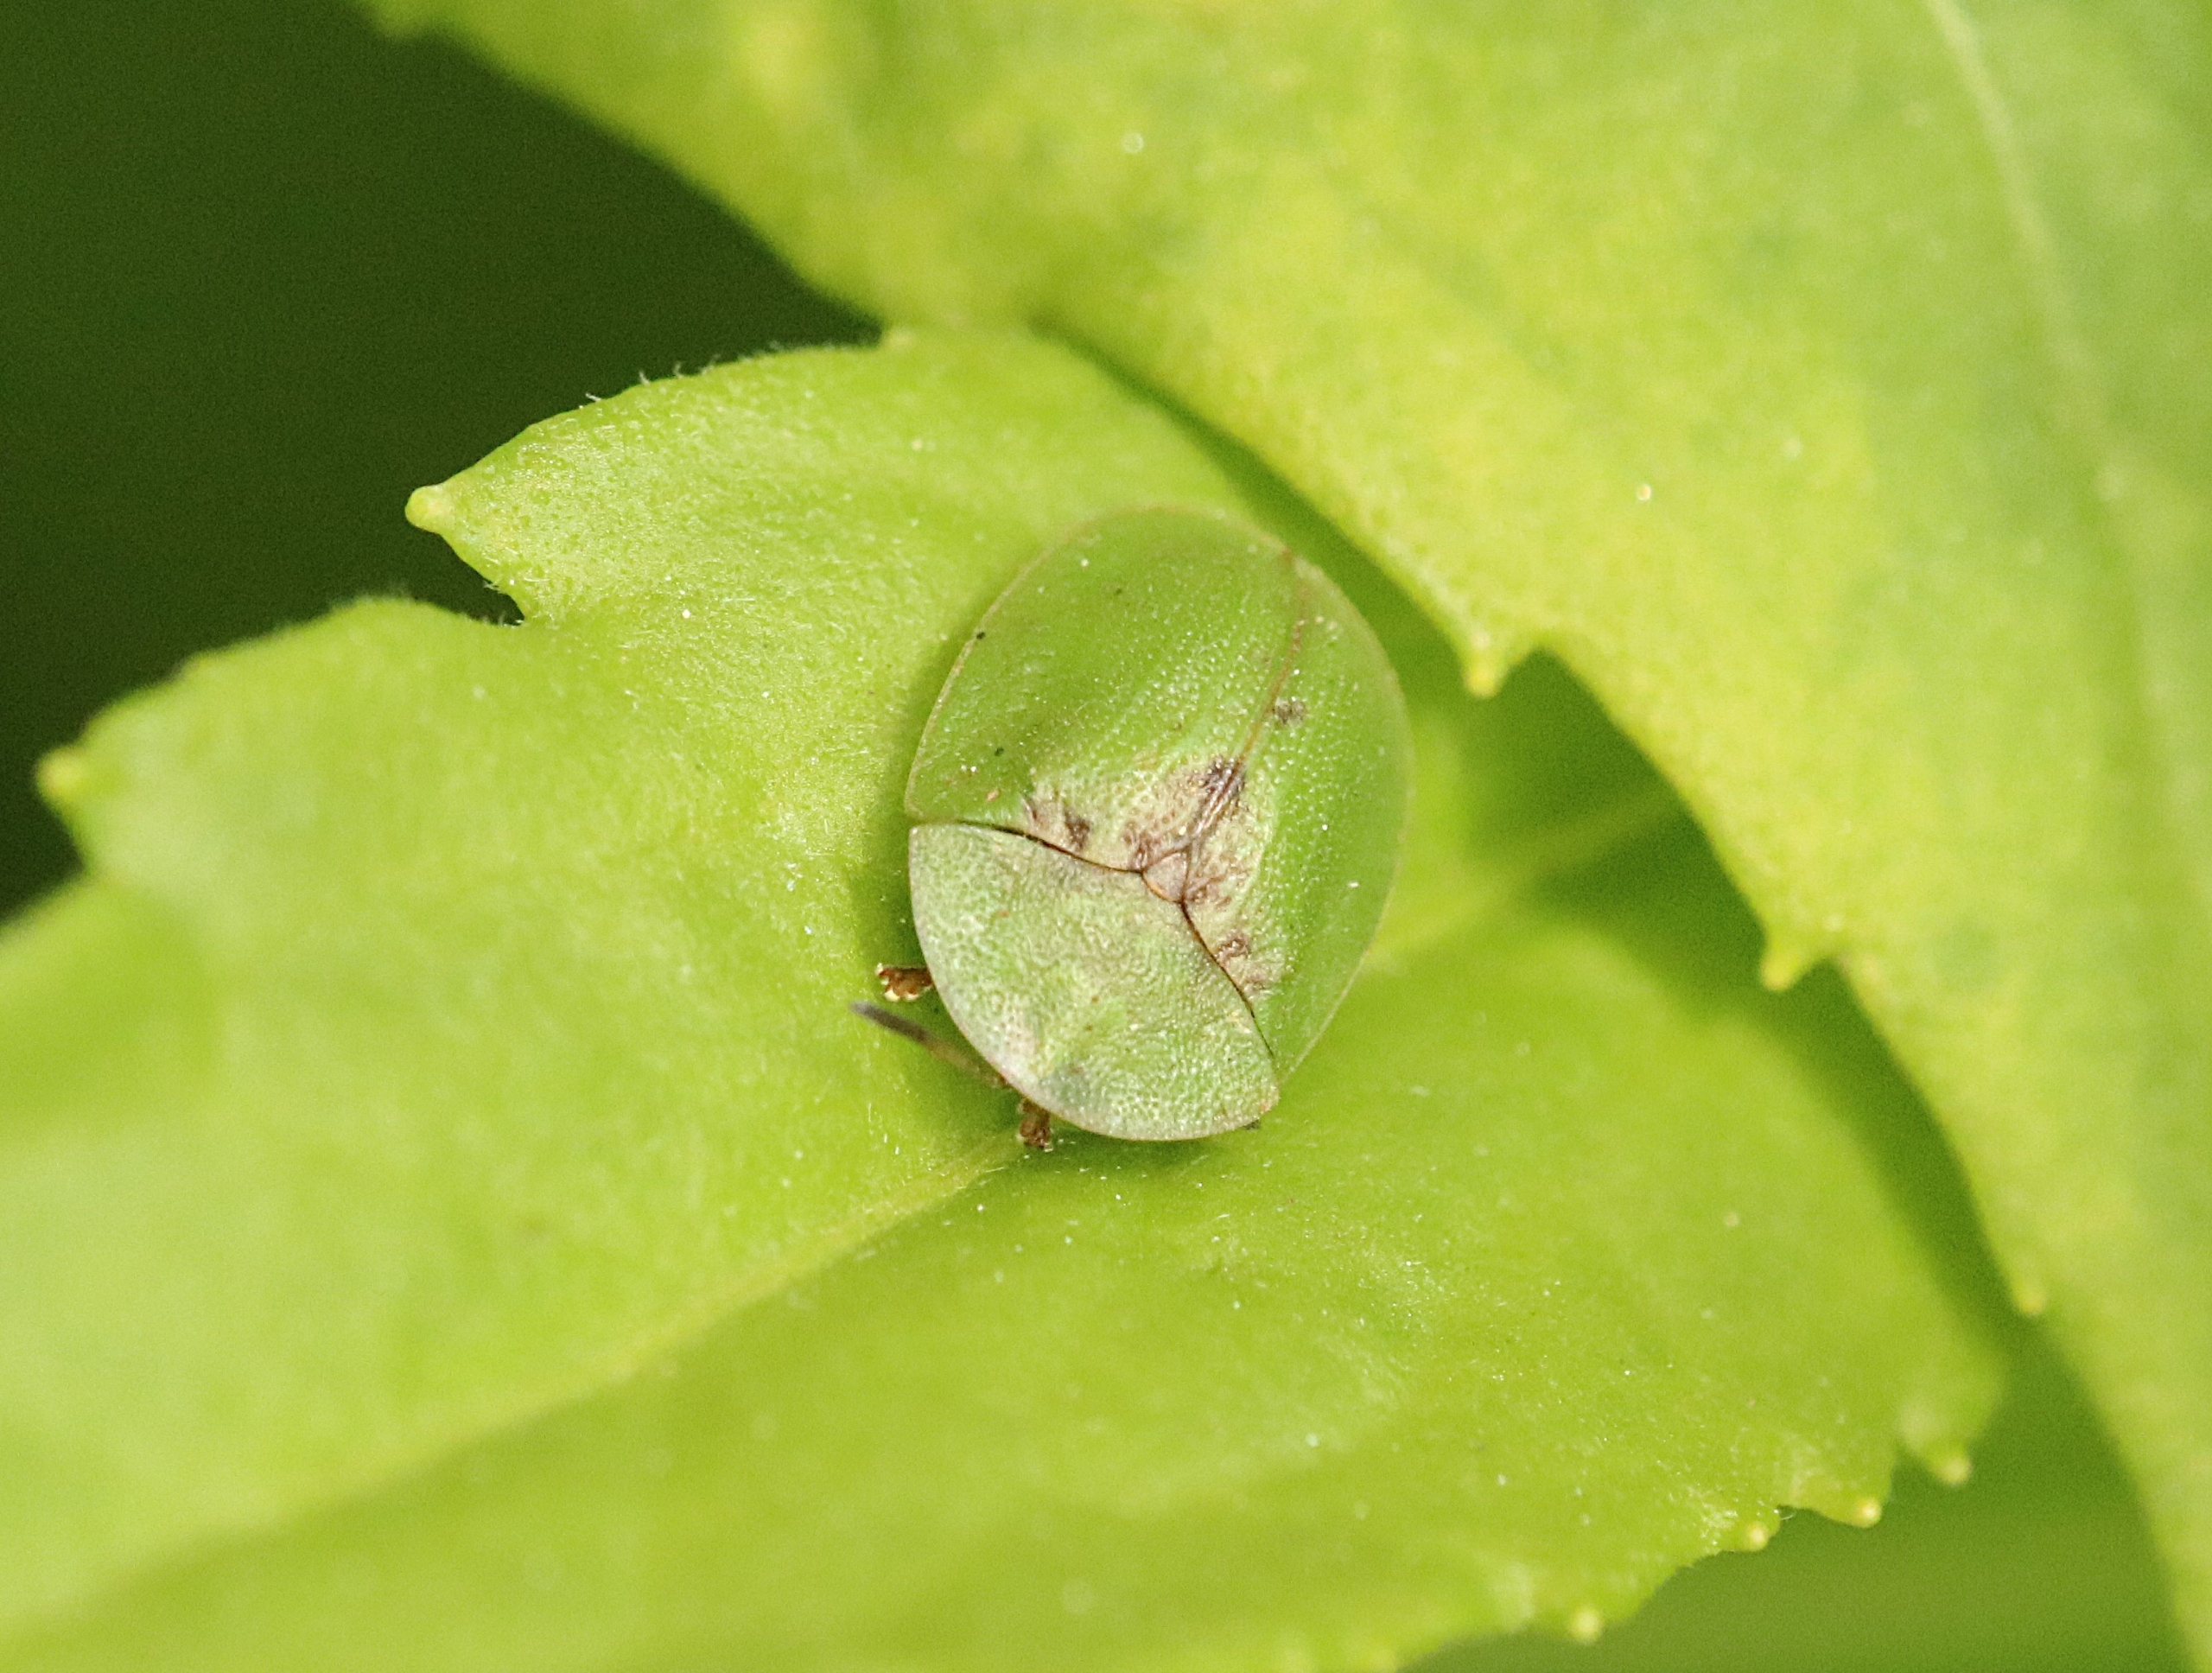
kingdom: Animalia
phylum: Arthropoda
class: Insecta
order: Coleoptera
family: Chrysomelidae
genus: Cassida
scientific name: Cassida rubiginosa
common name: Tidselskjoldbille
